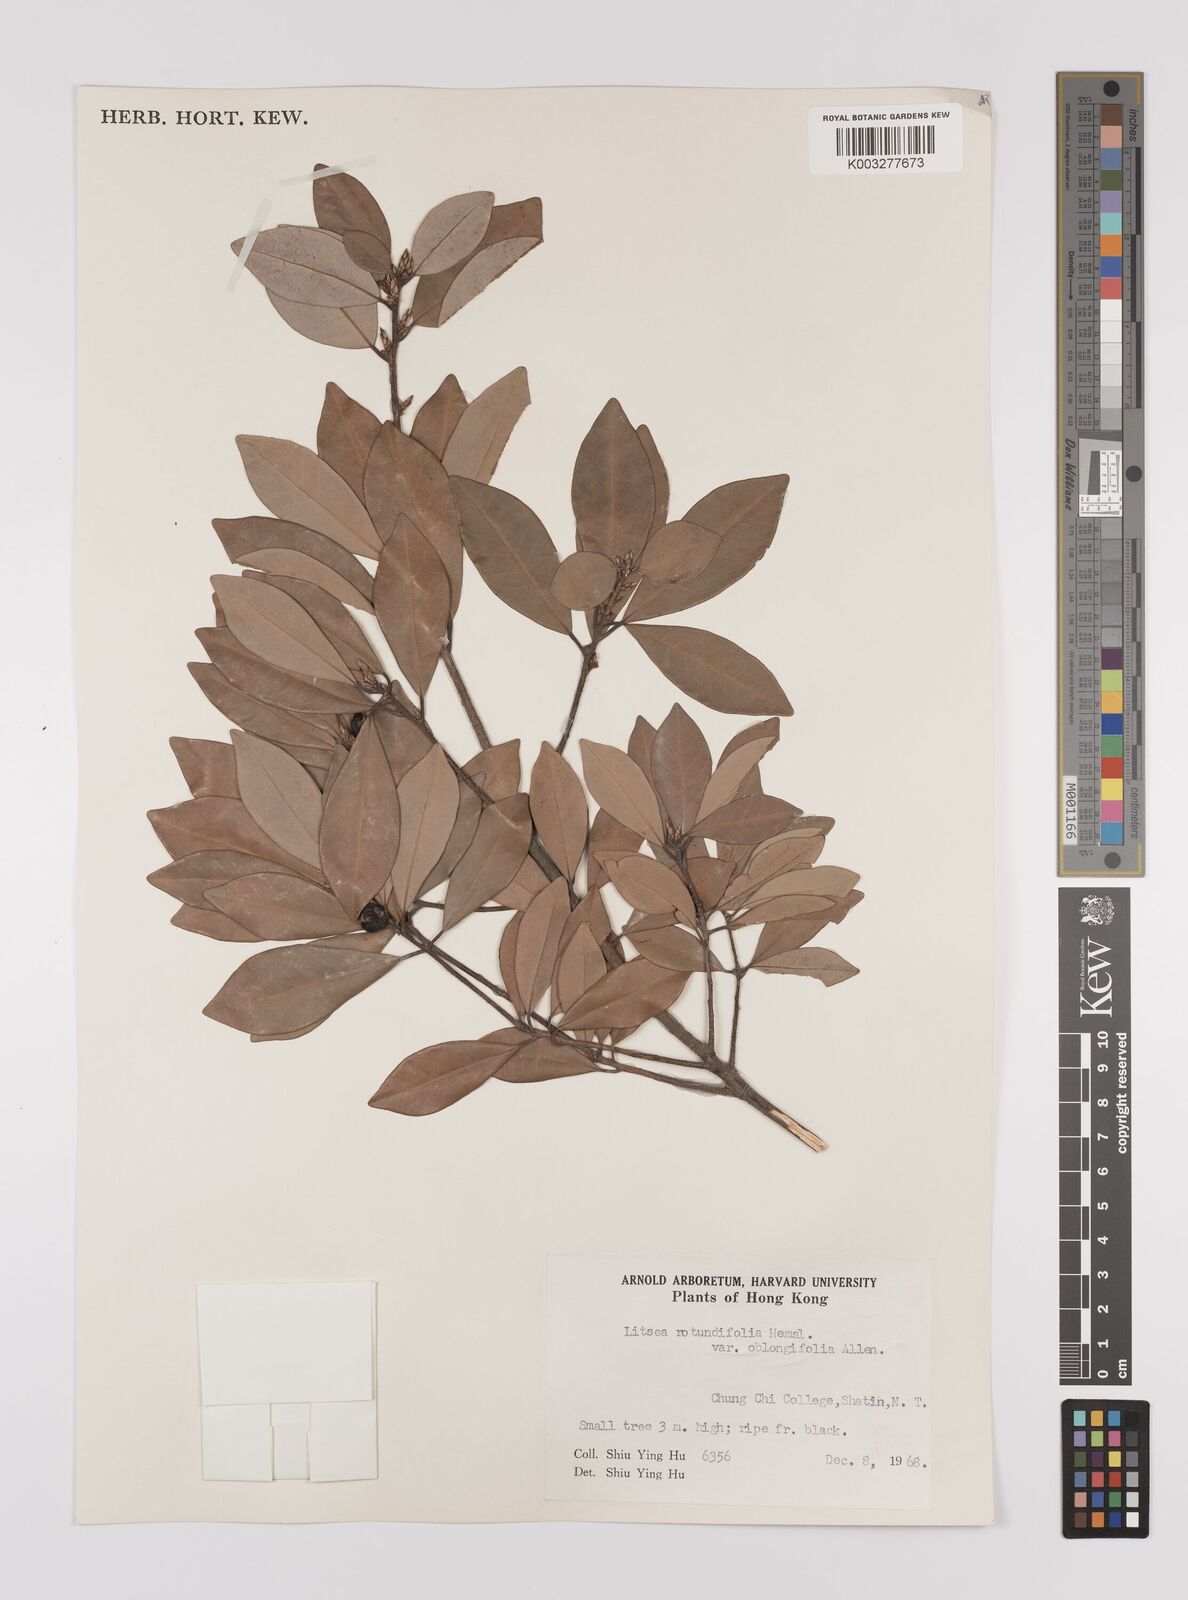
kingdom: Plantae
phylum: Tracheophyta
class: Magnoliopsida
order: Laurales
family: Lauraceae
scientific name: Lauraceae
